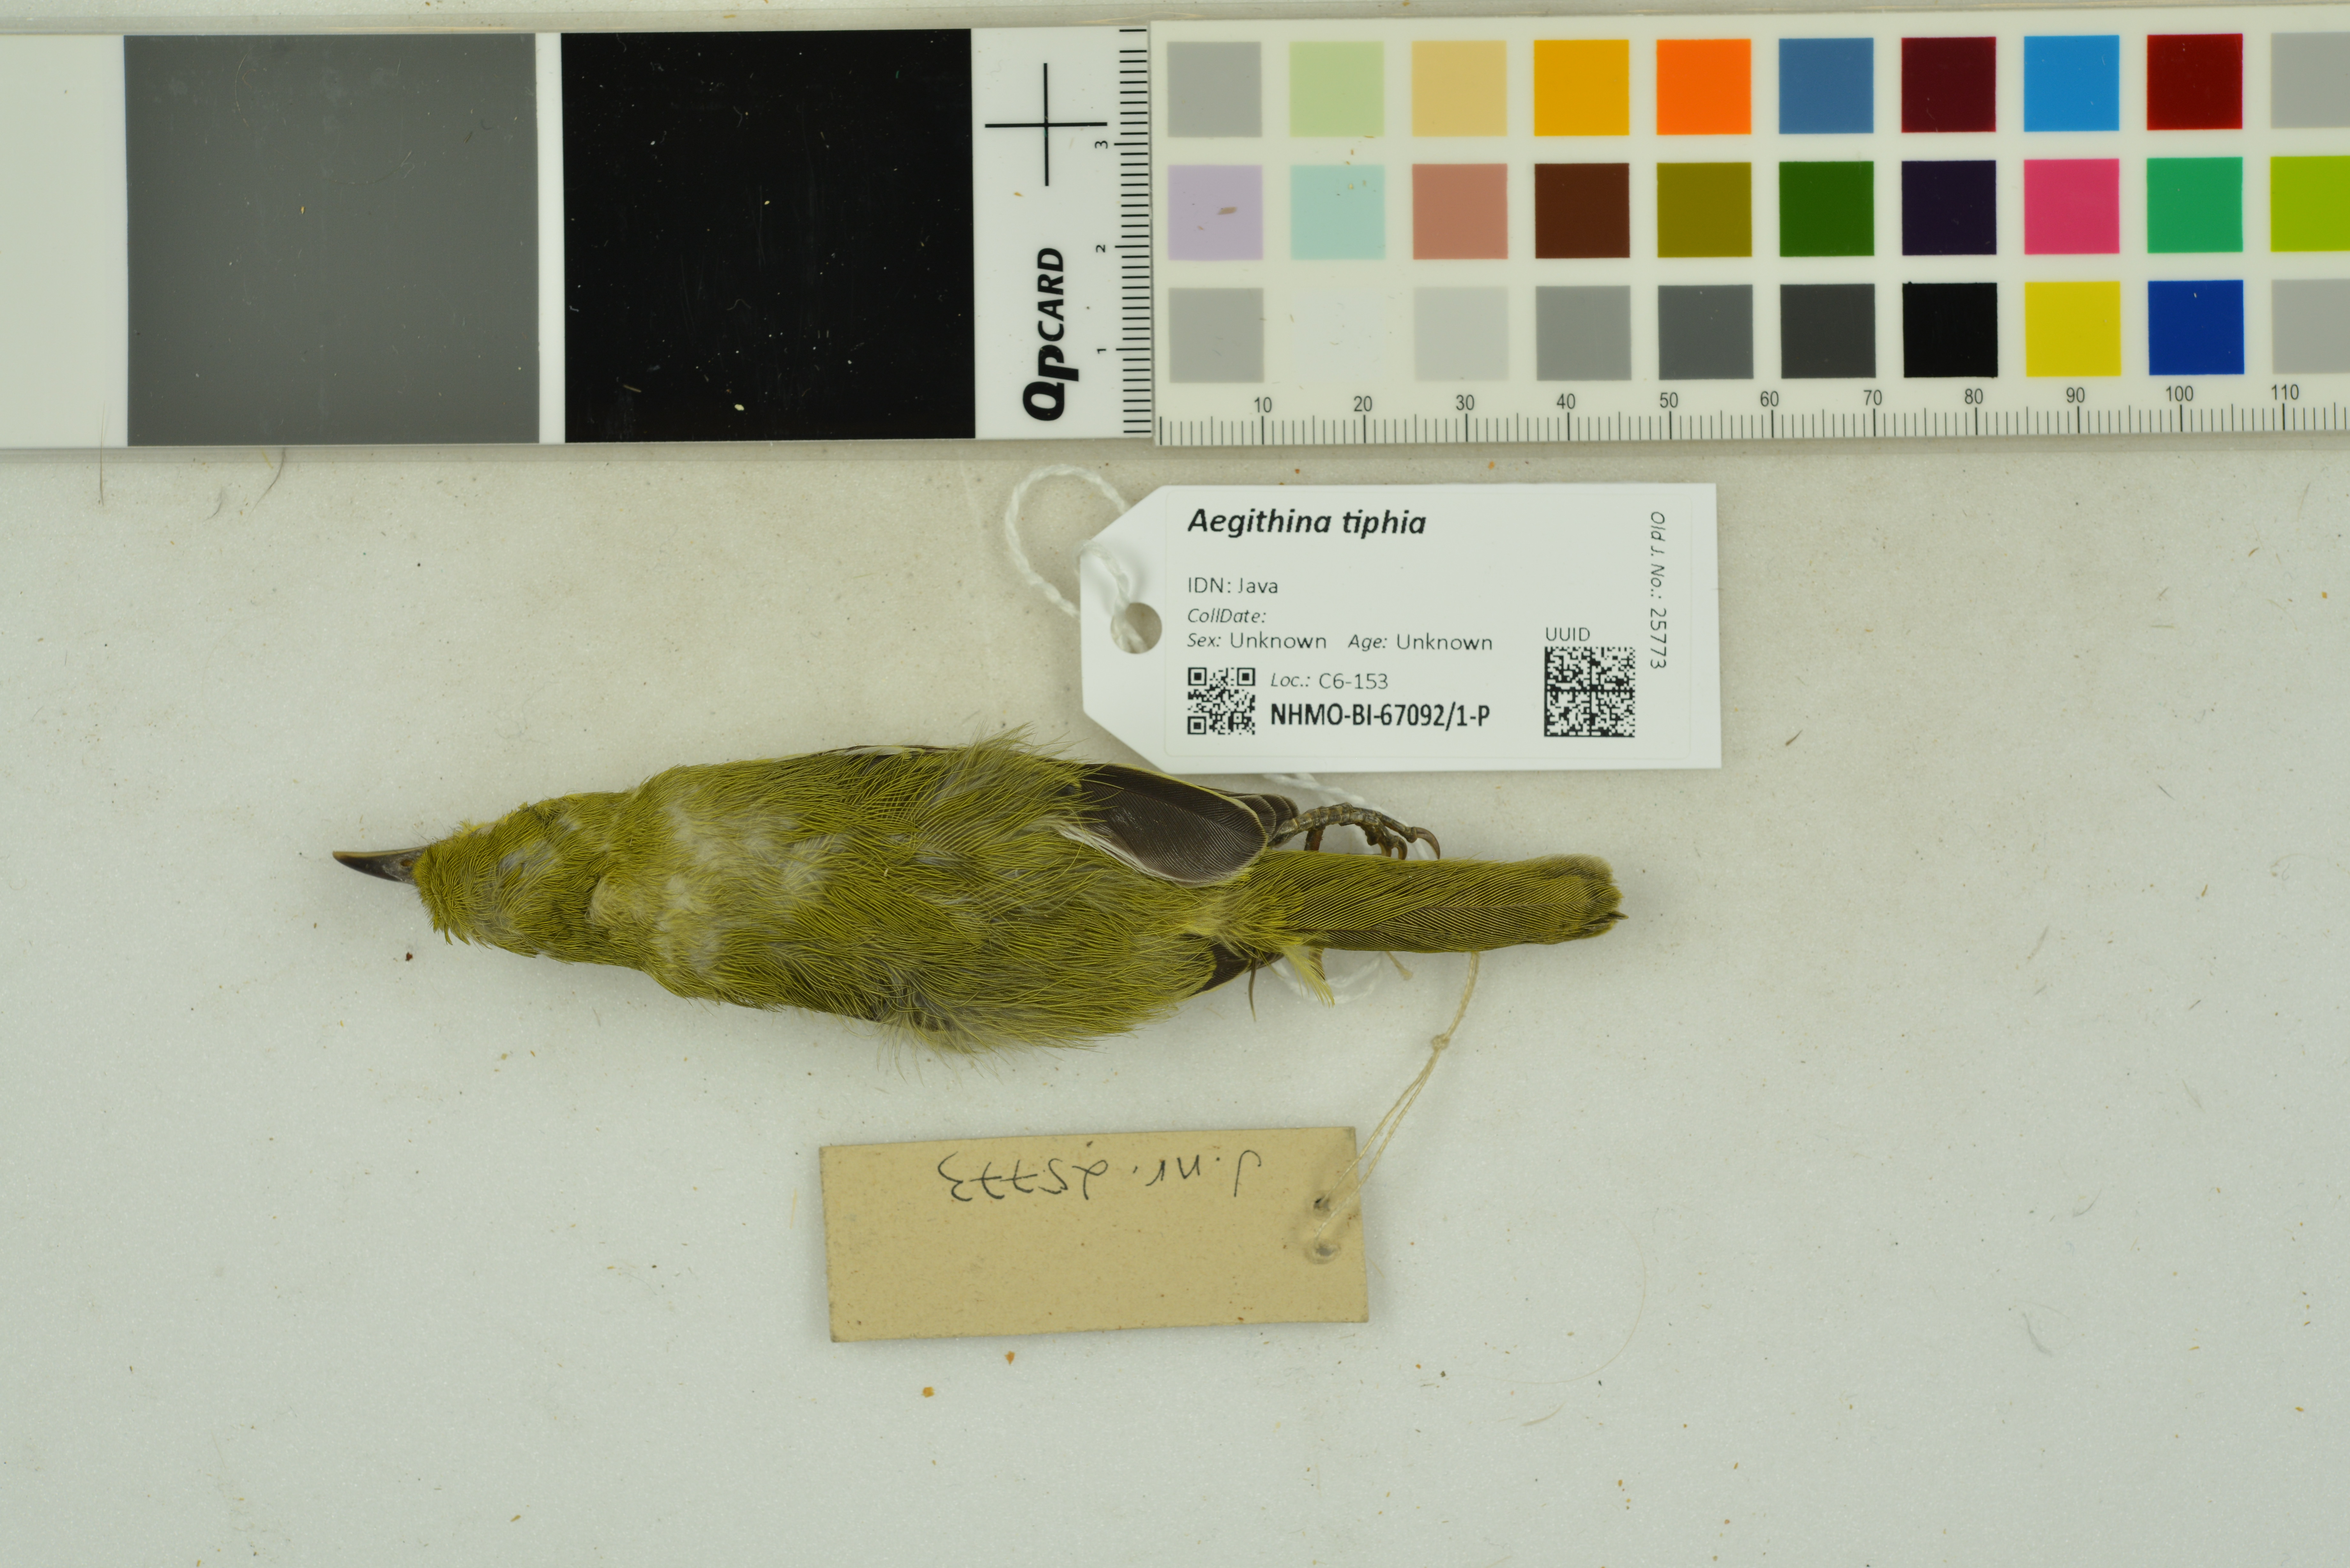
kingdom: Animalia
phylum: Chordata
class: Aves
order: Passeriformes
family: Aegithinidae
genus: Aegithina
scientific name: Aegithina tiphia
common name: Common iora
